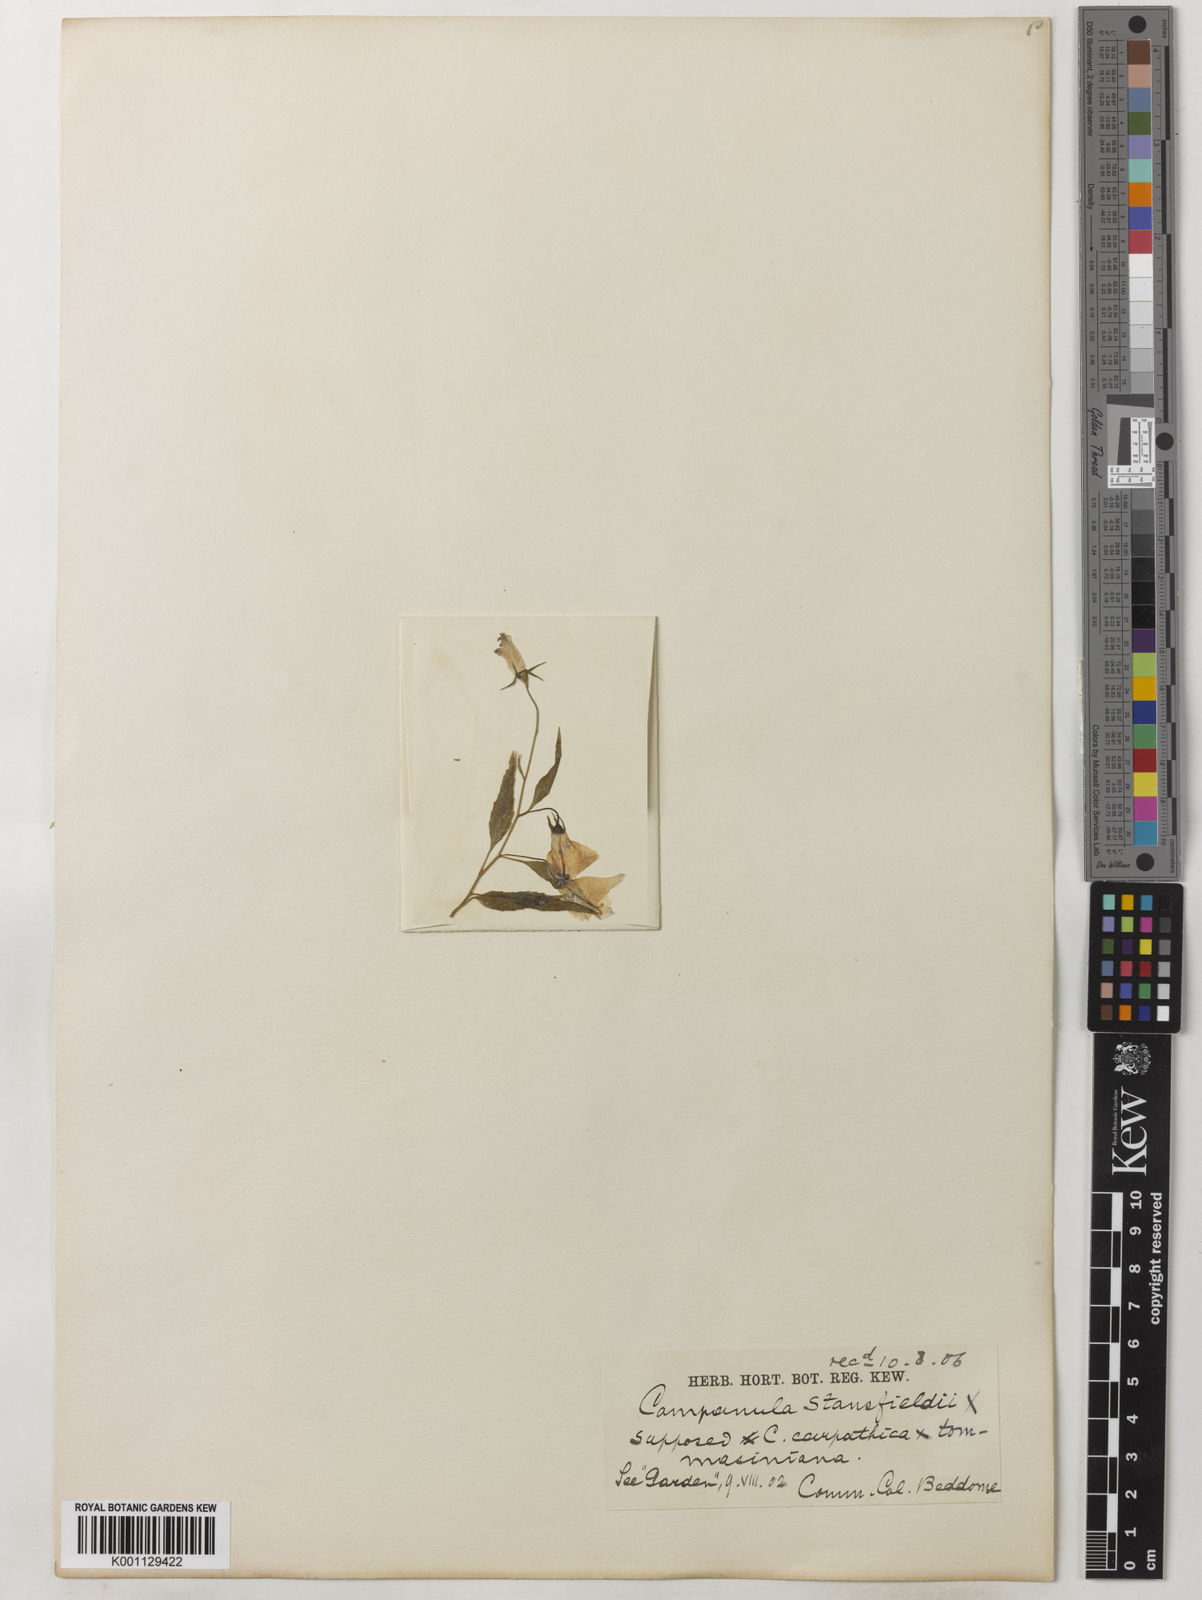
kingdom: Plantae
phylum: Tracheophyta
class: Magnoliopsida
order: Asterales
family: Campanulaceae
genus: Campanula
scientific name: Campanula
